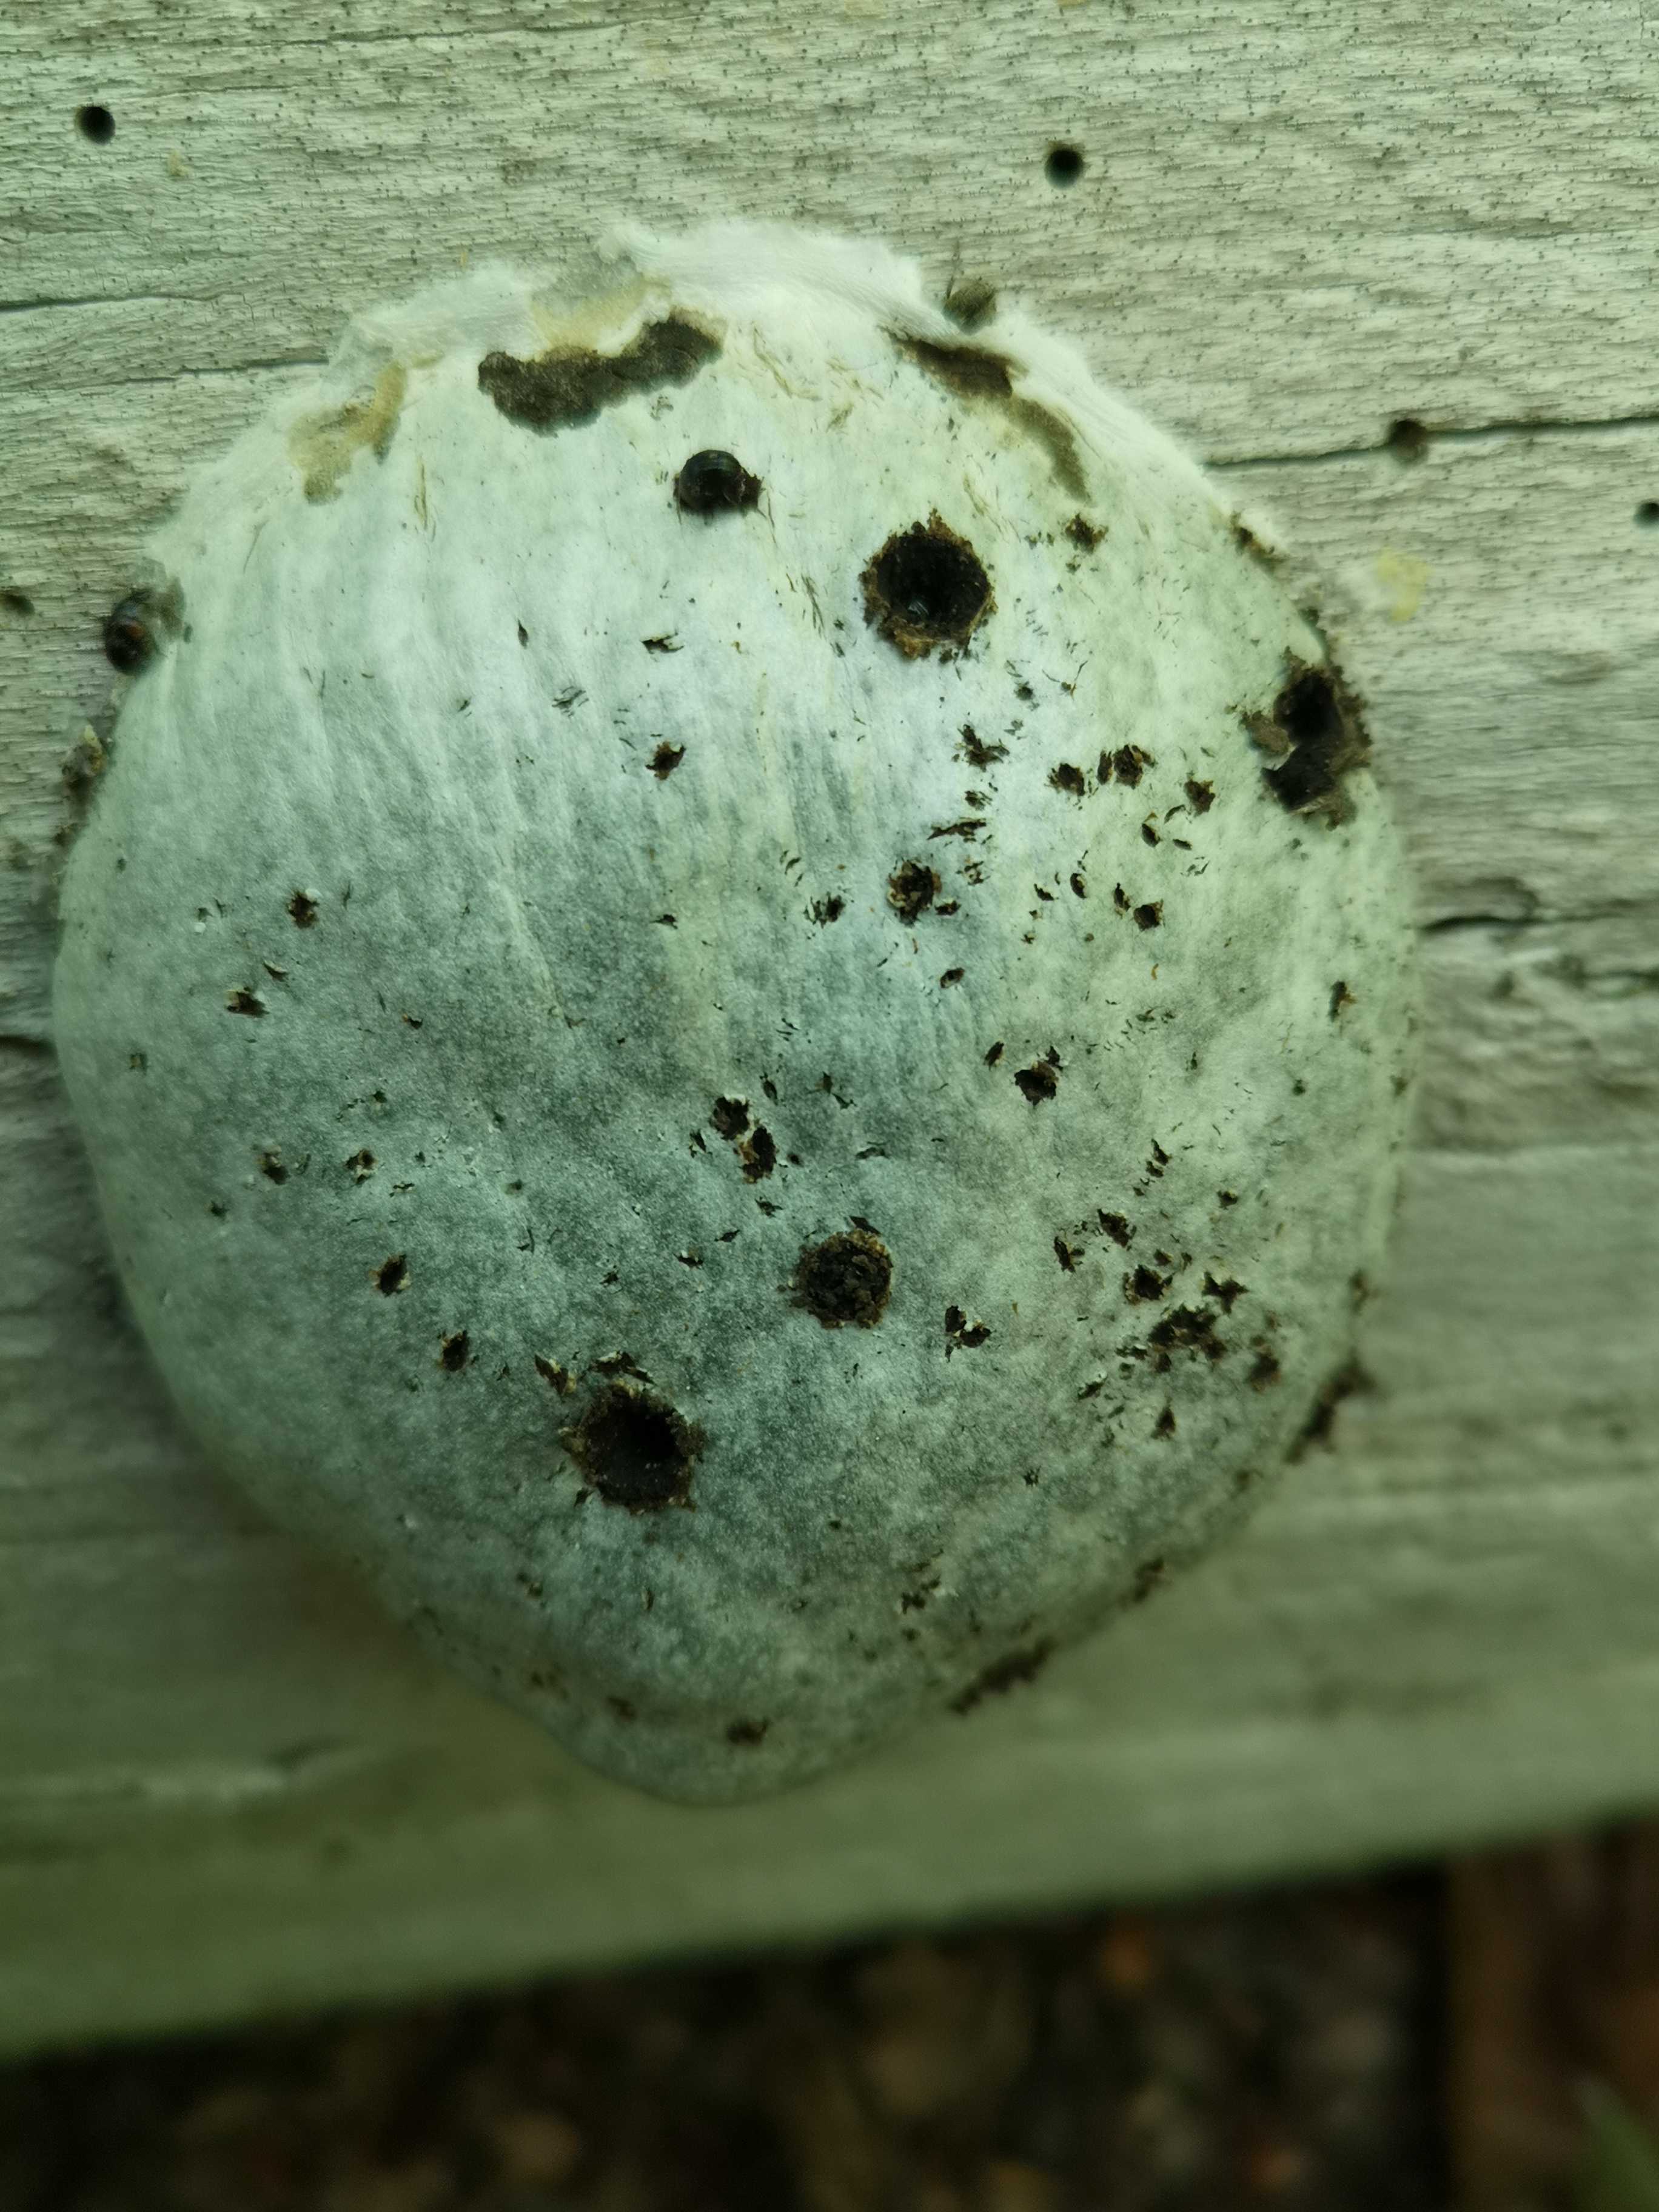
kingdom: Protozoa
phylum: Mycetozoa
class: Myxomycetes
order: Cribrariales
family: Tubiferaceae
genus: Reticularia
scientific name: Reticularia lycoperdon
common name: skinnende støvpude
